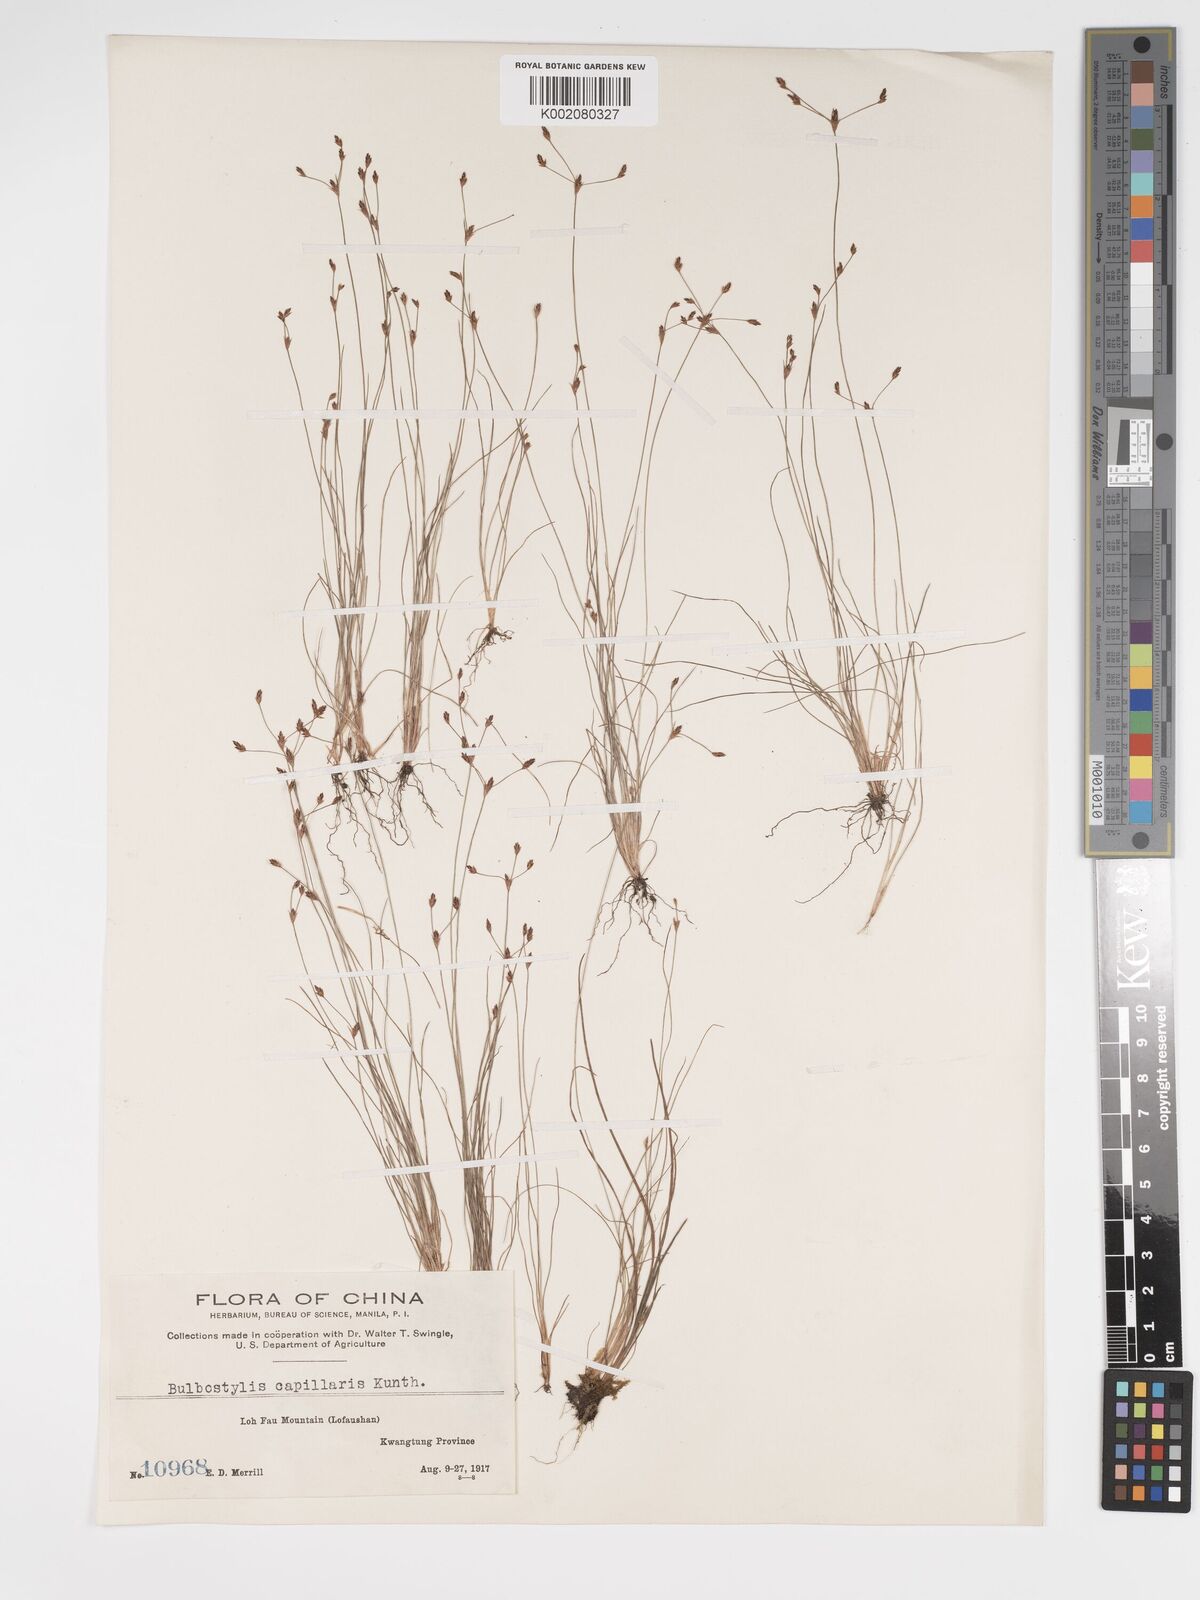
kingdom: Plantae
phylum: Tracheophyta
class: Liliopsida
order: Poales
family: Cyperaceae
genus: Bulbostylis
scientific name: Bulbostylis capillaris
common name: Densetuft hairsedge
